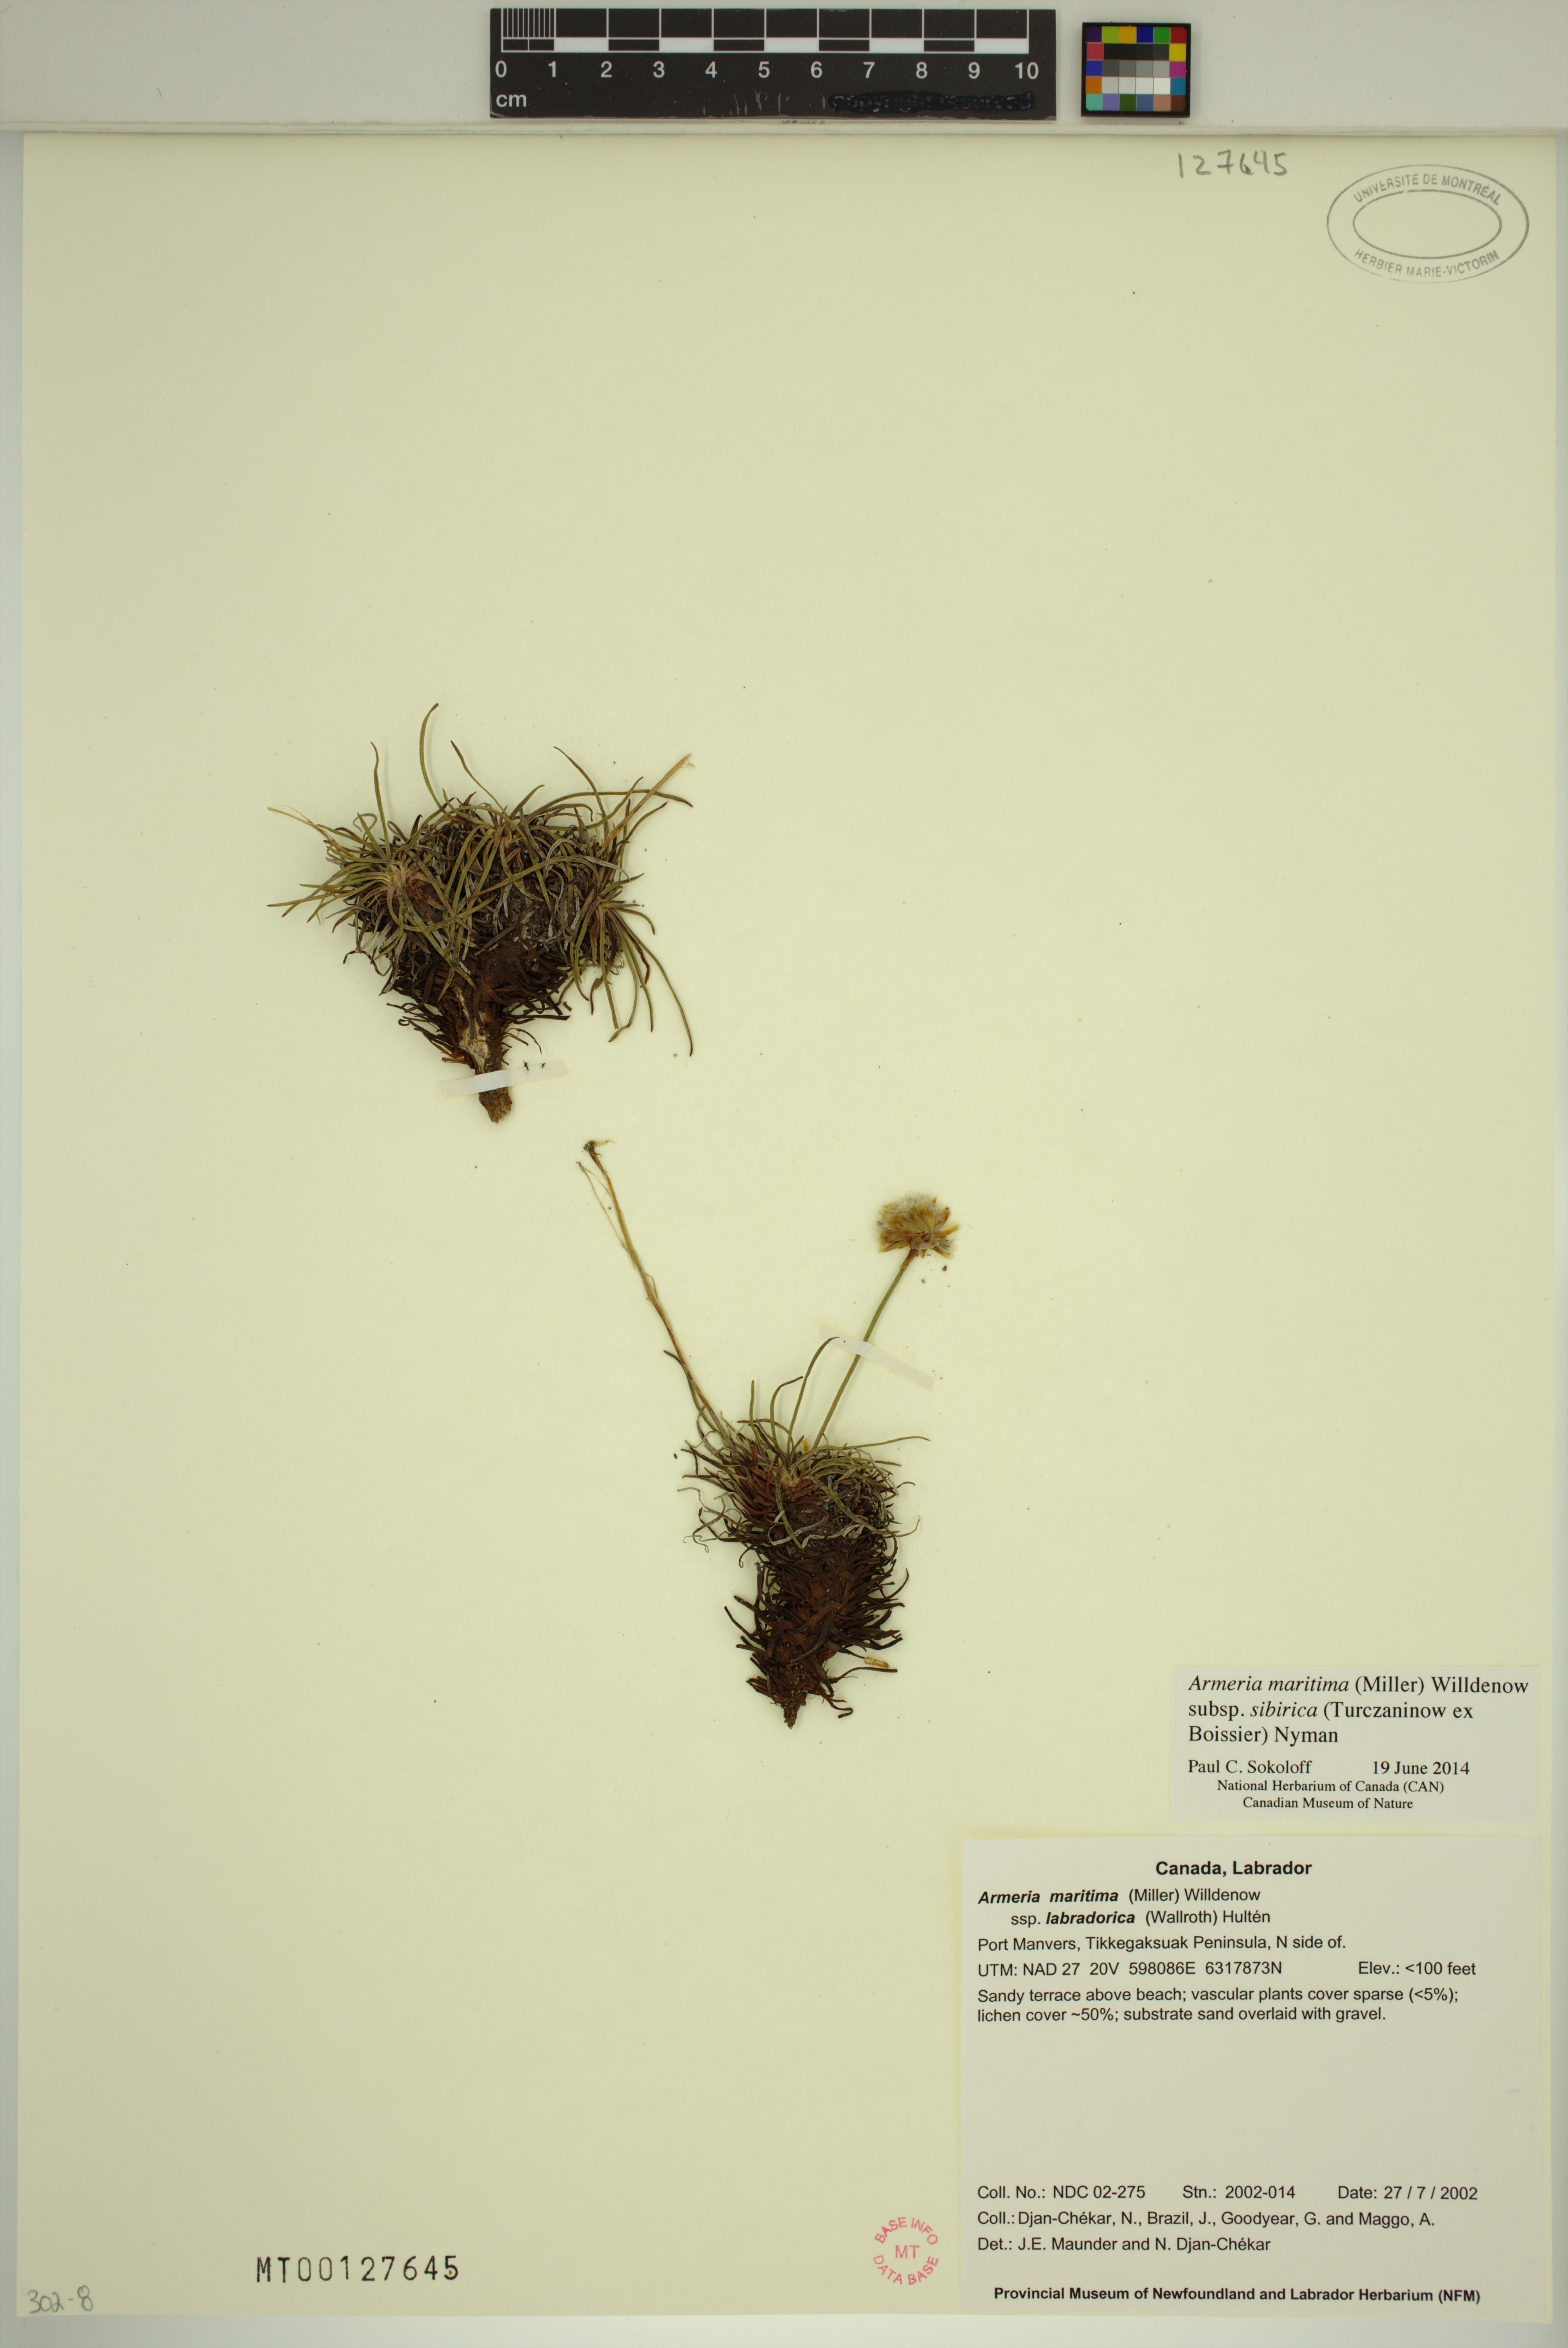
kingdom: Plantae
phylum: Tracheophyta
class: Magnoliopsida
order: Caryophyllales
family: Plumbaginaceae
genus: Armeria
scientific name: Armeria maritima
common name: Thrift
